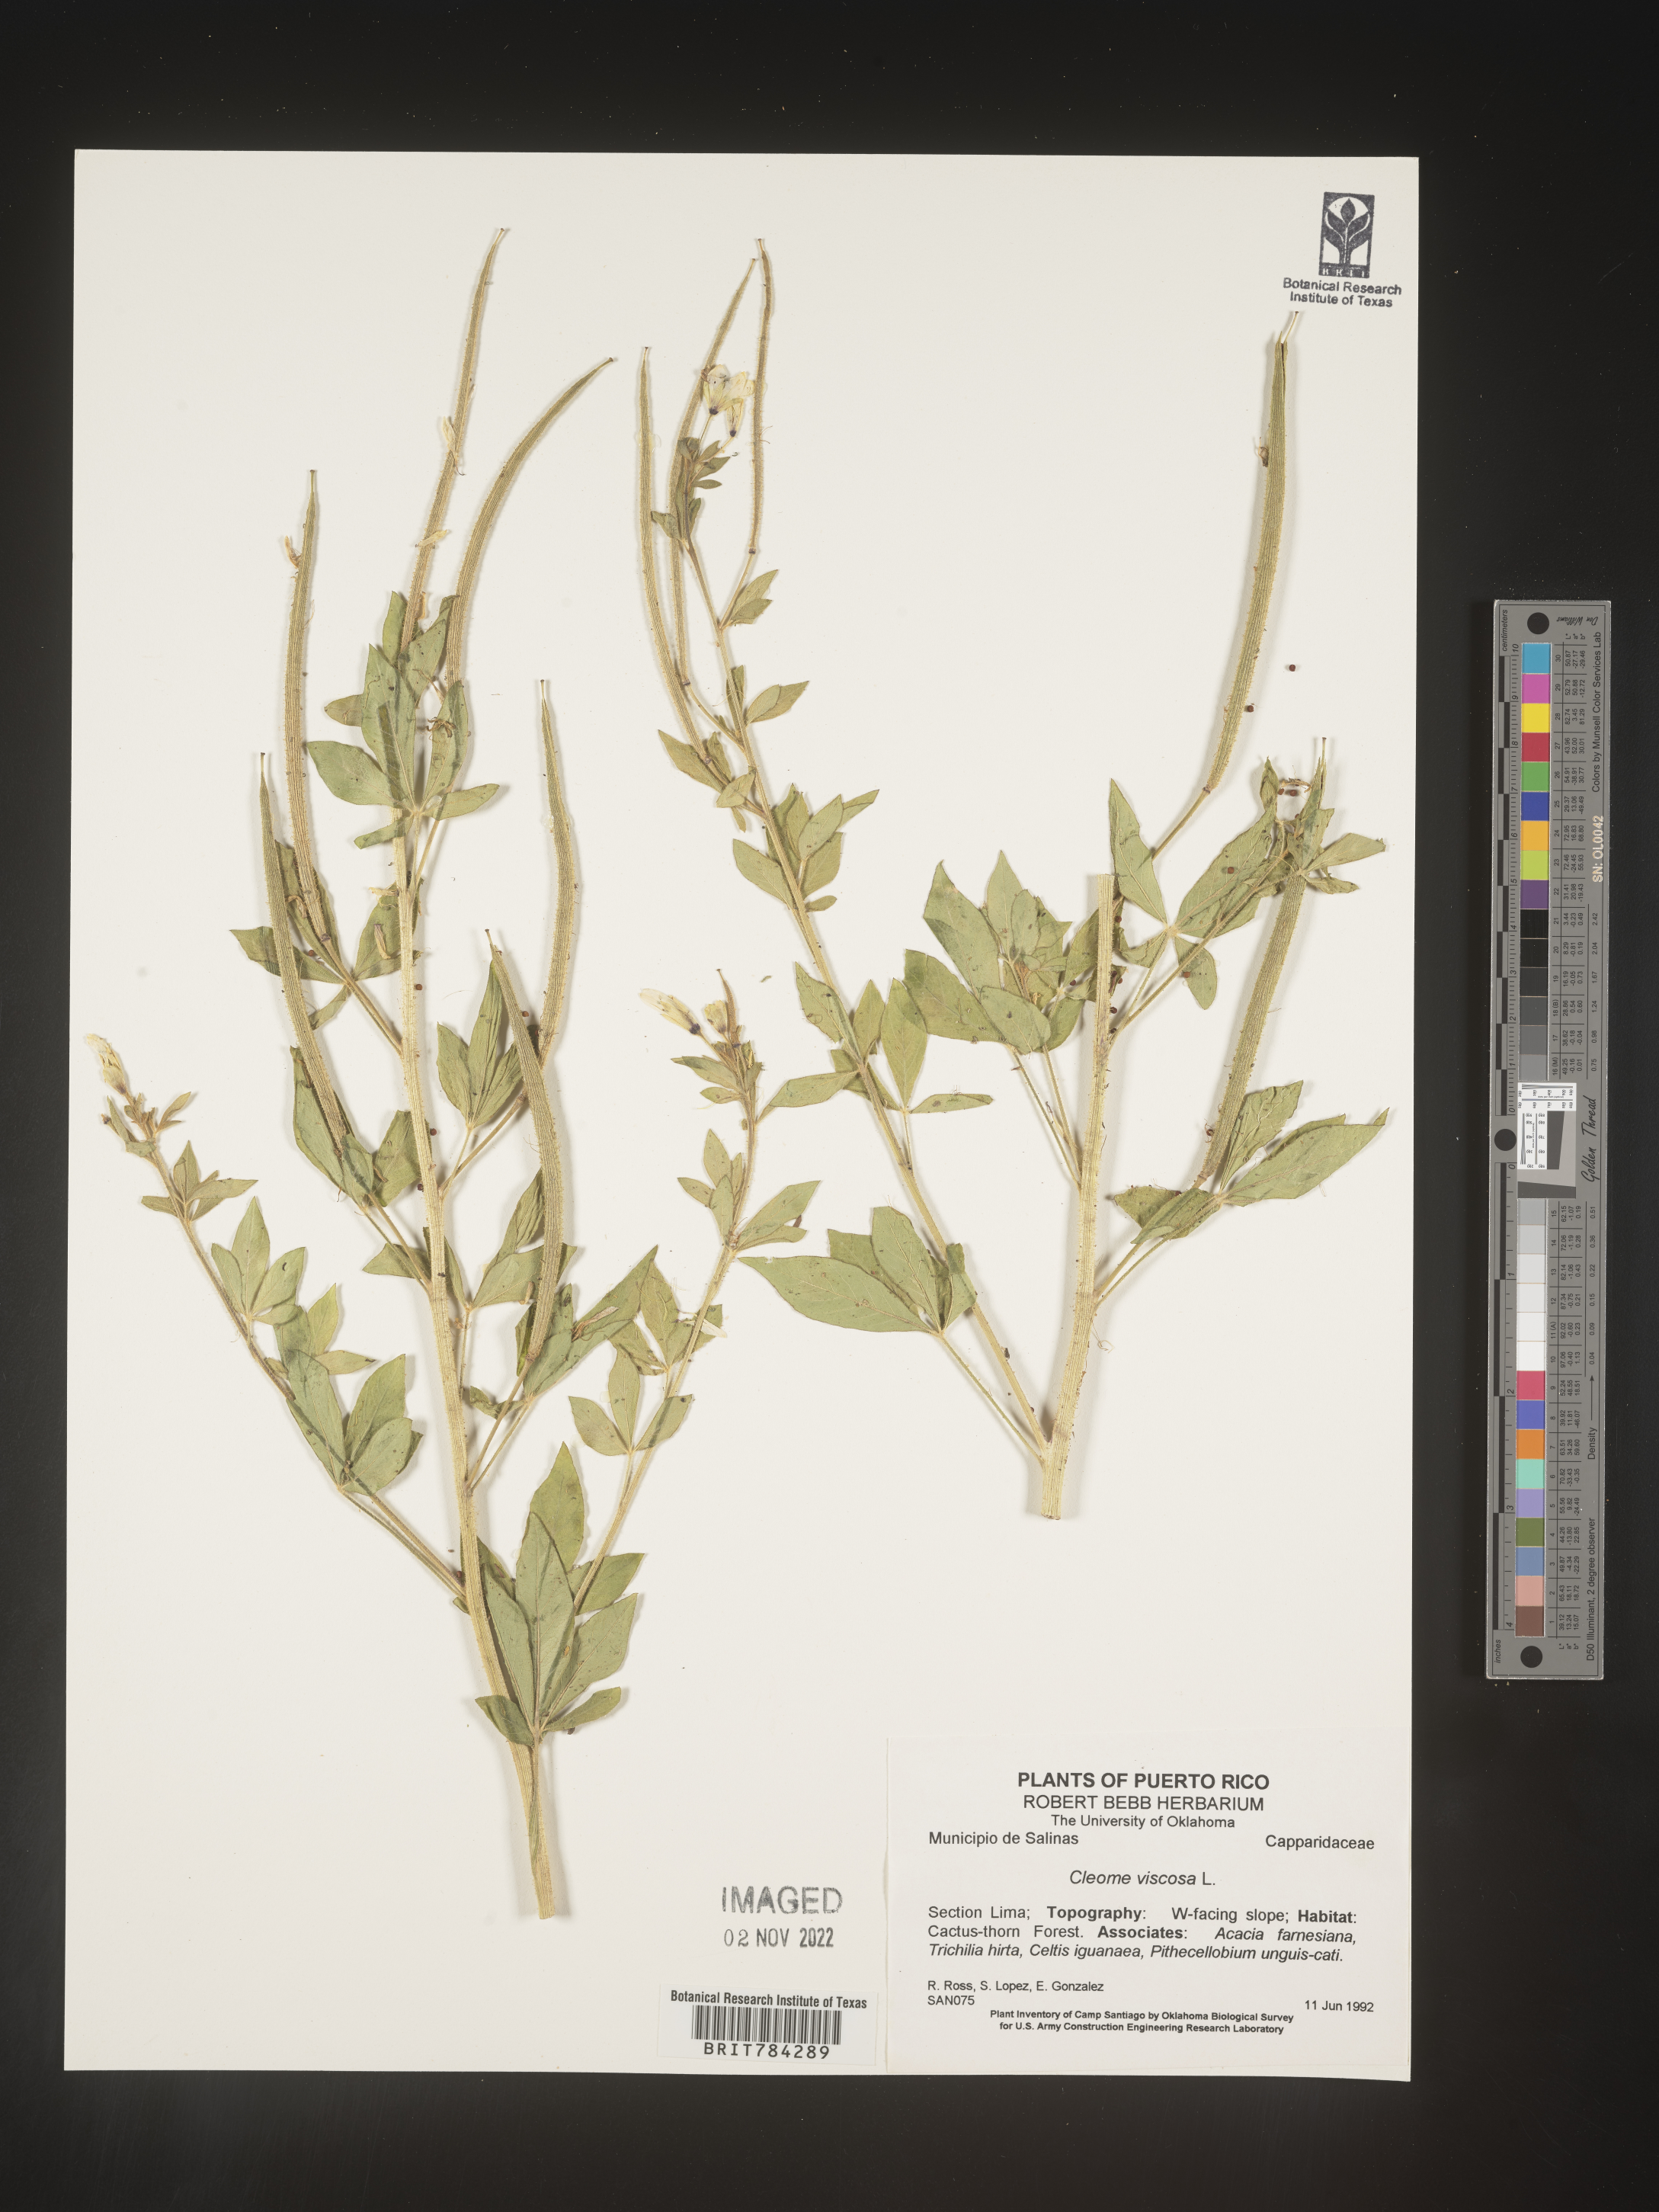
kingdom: Plantae
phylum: Tracheophyta
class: Magnoliopsida
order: Brassicales
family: Cleomaceae
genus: Cleome
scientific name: Cleome
